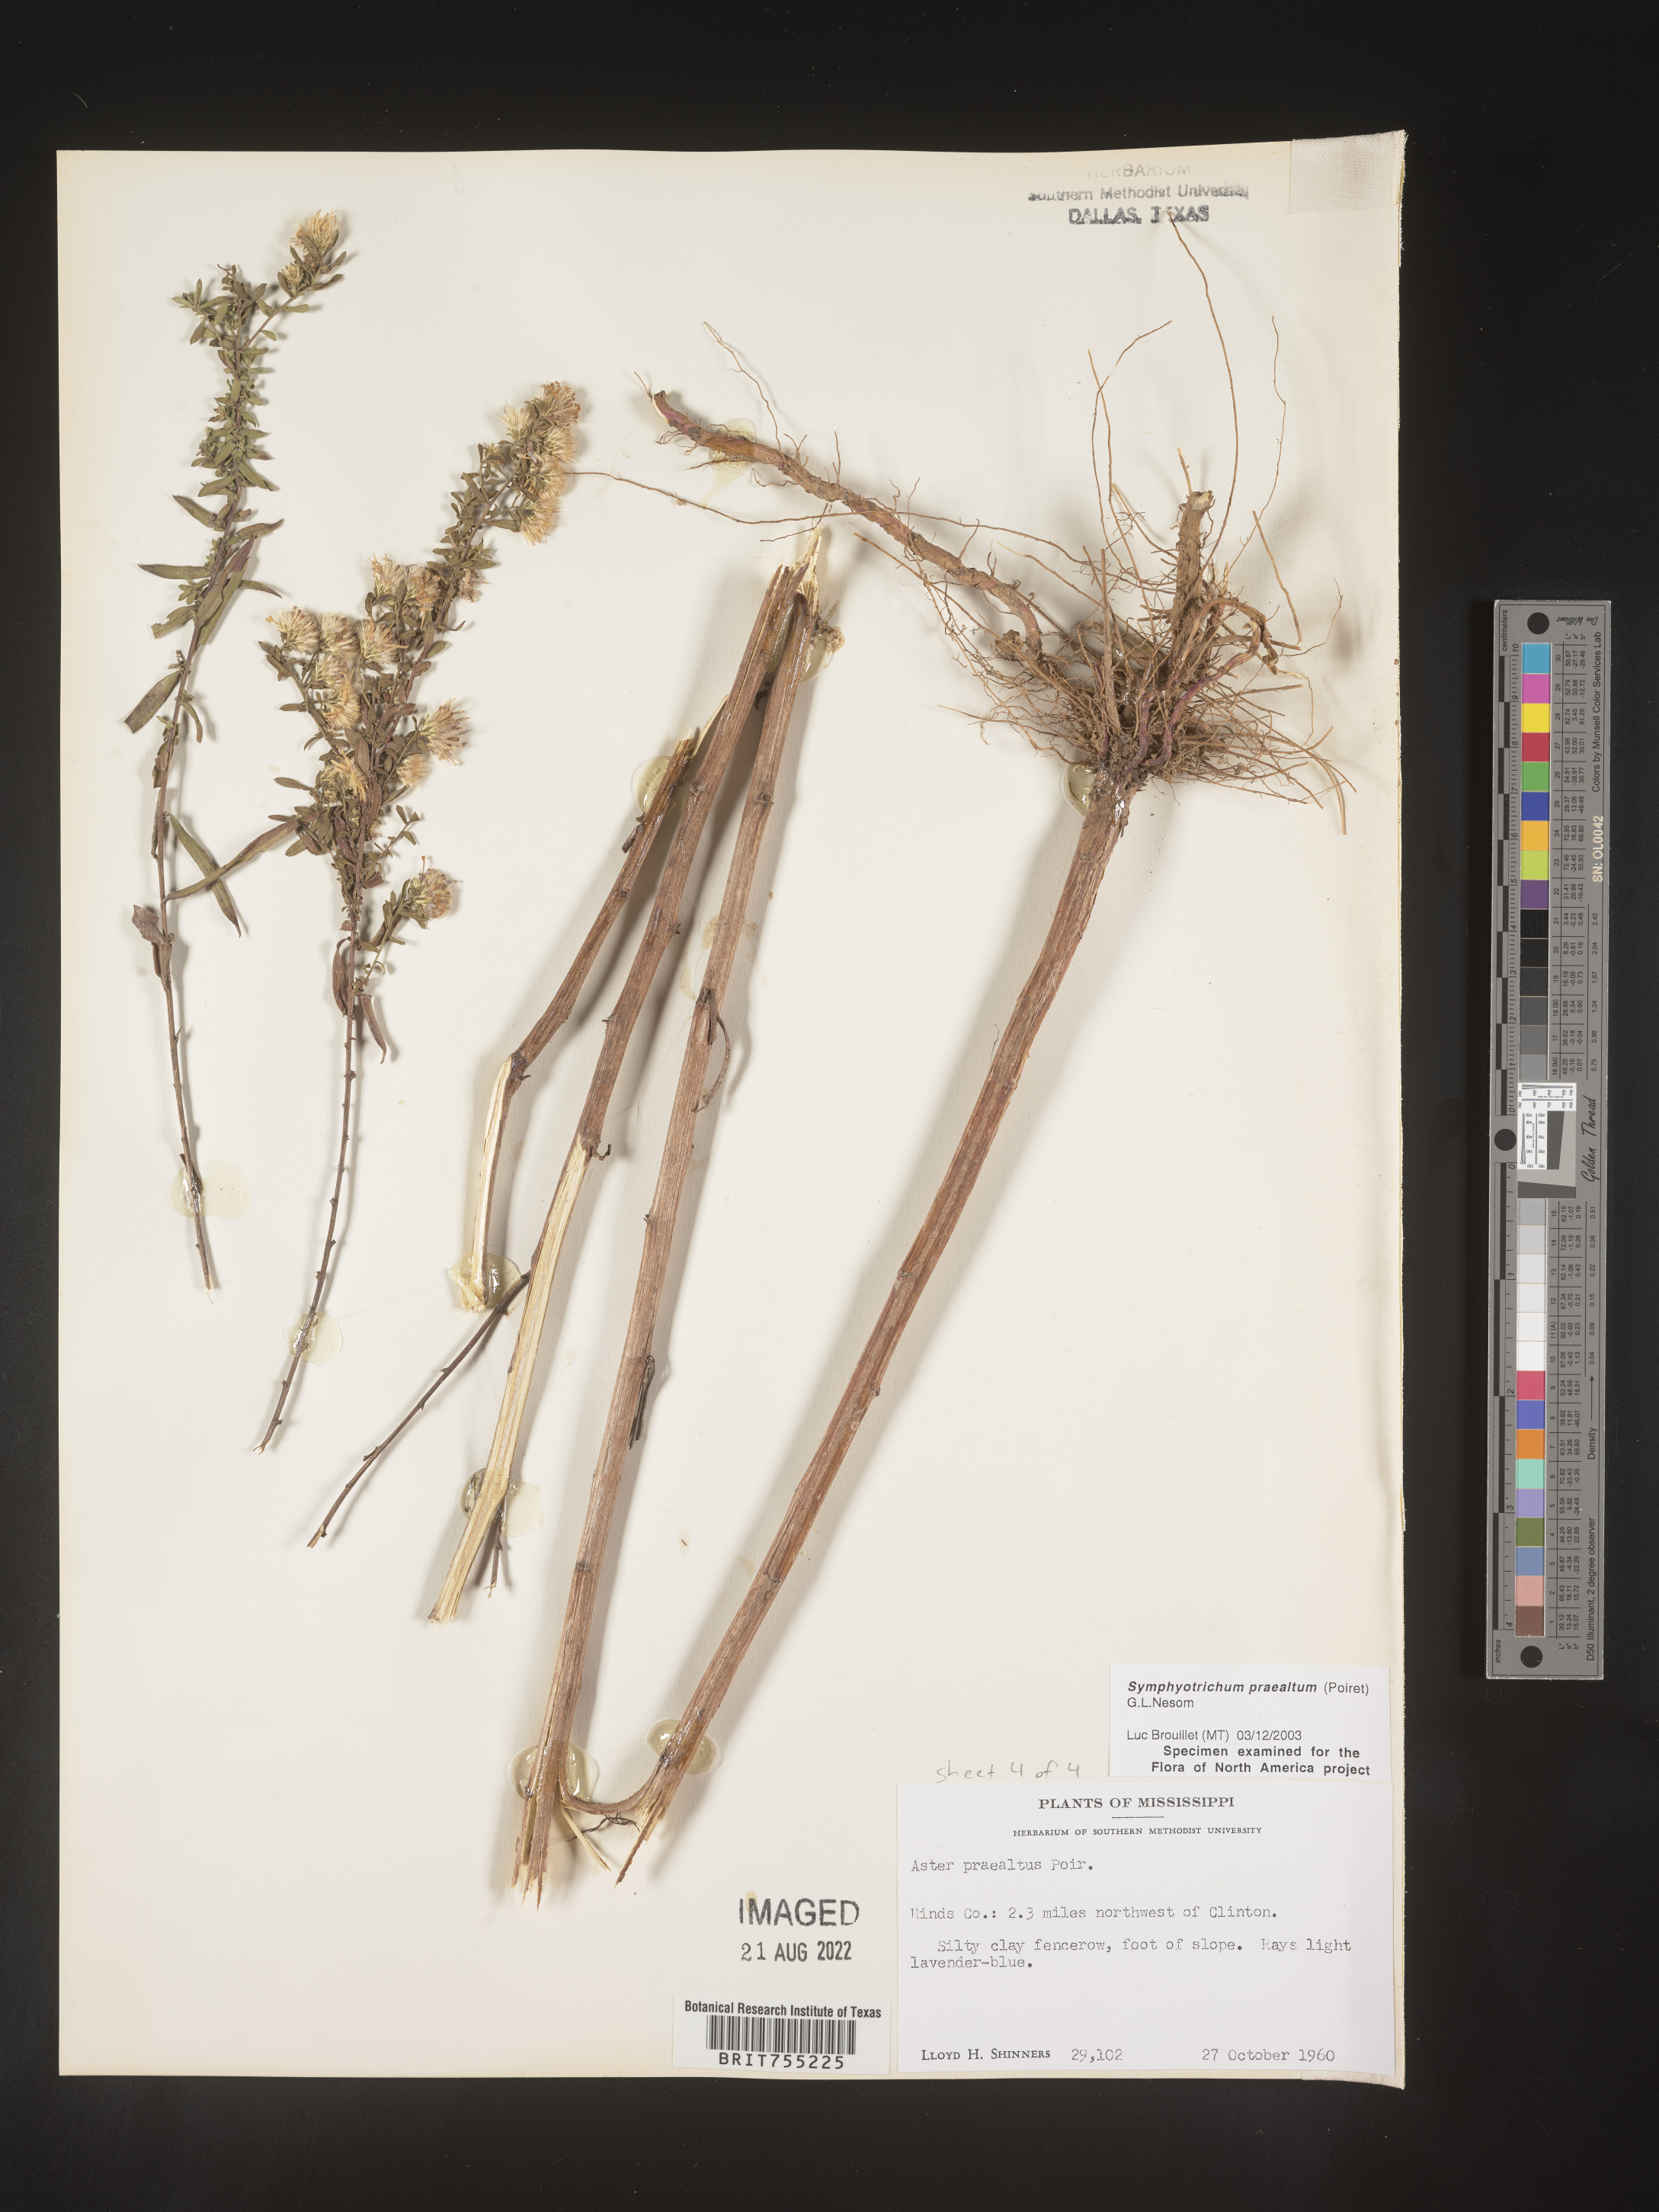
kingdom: Plantae
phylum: Tracheophyta
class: Magnoliopsida
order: Asterales
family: Asteraceae
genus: Symphyotrichum
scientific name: Symphyotrichum praealtum
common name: Willow aster
